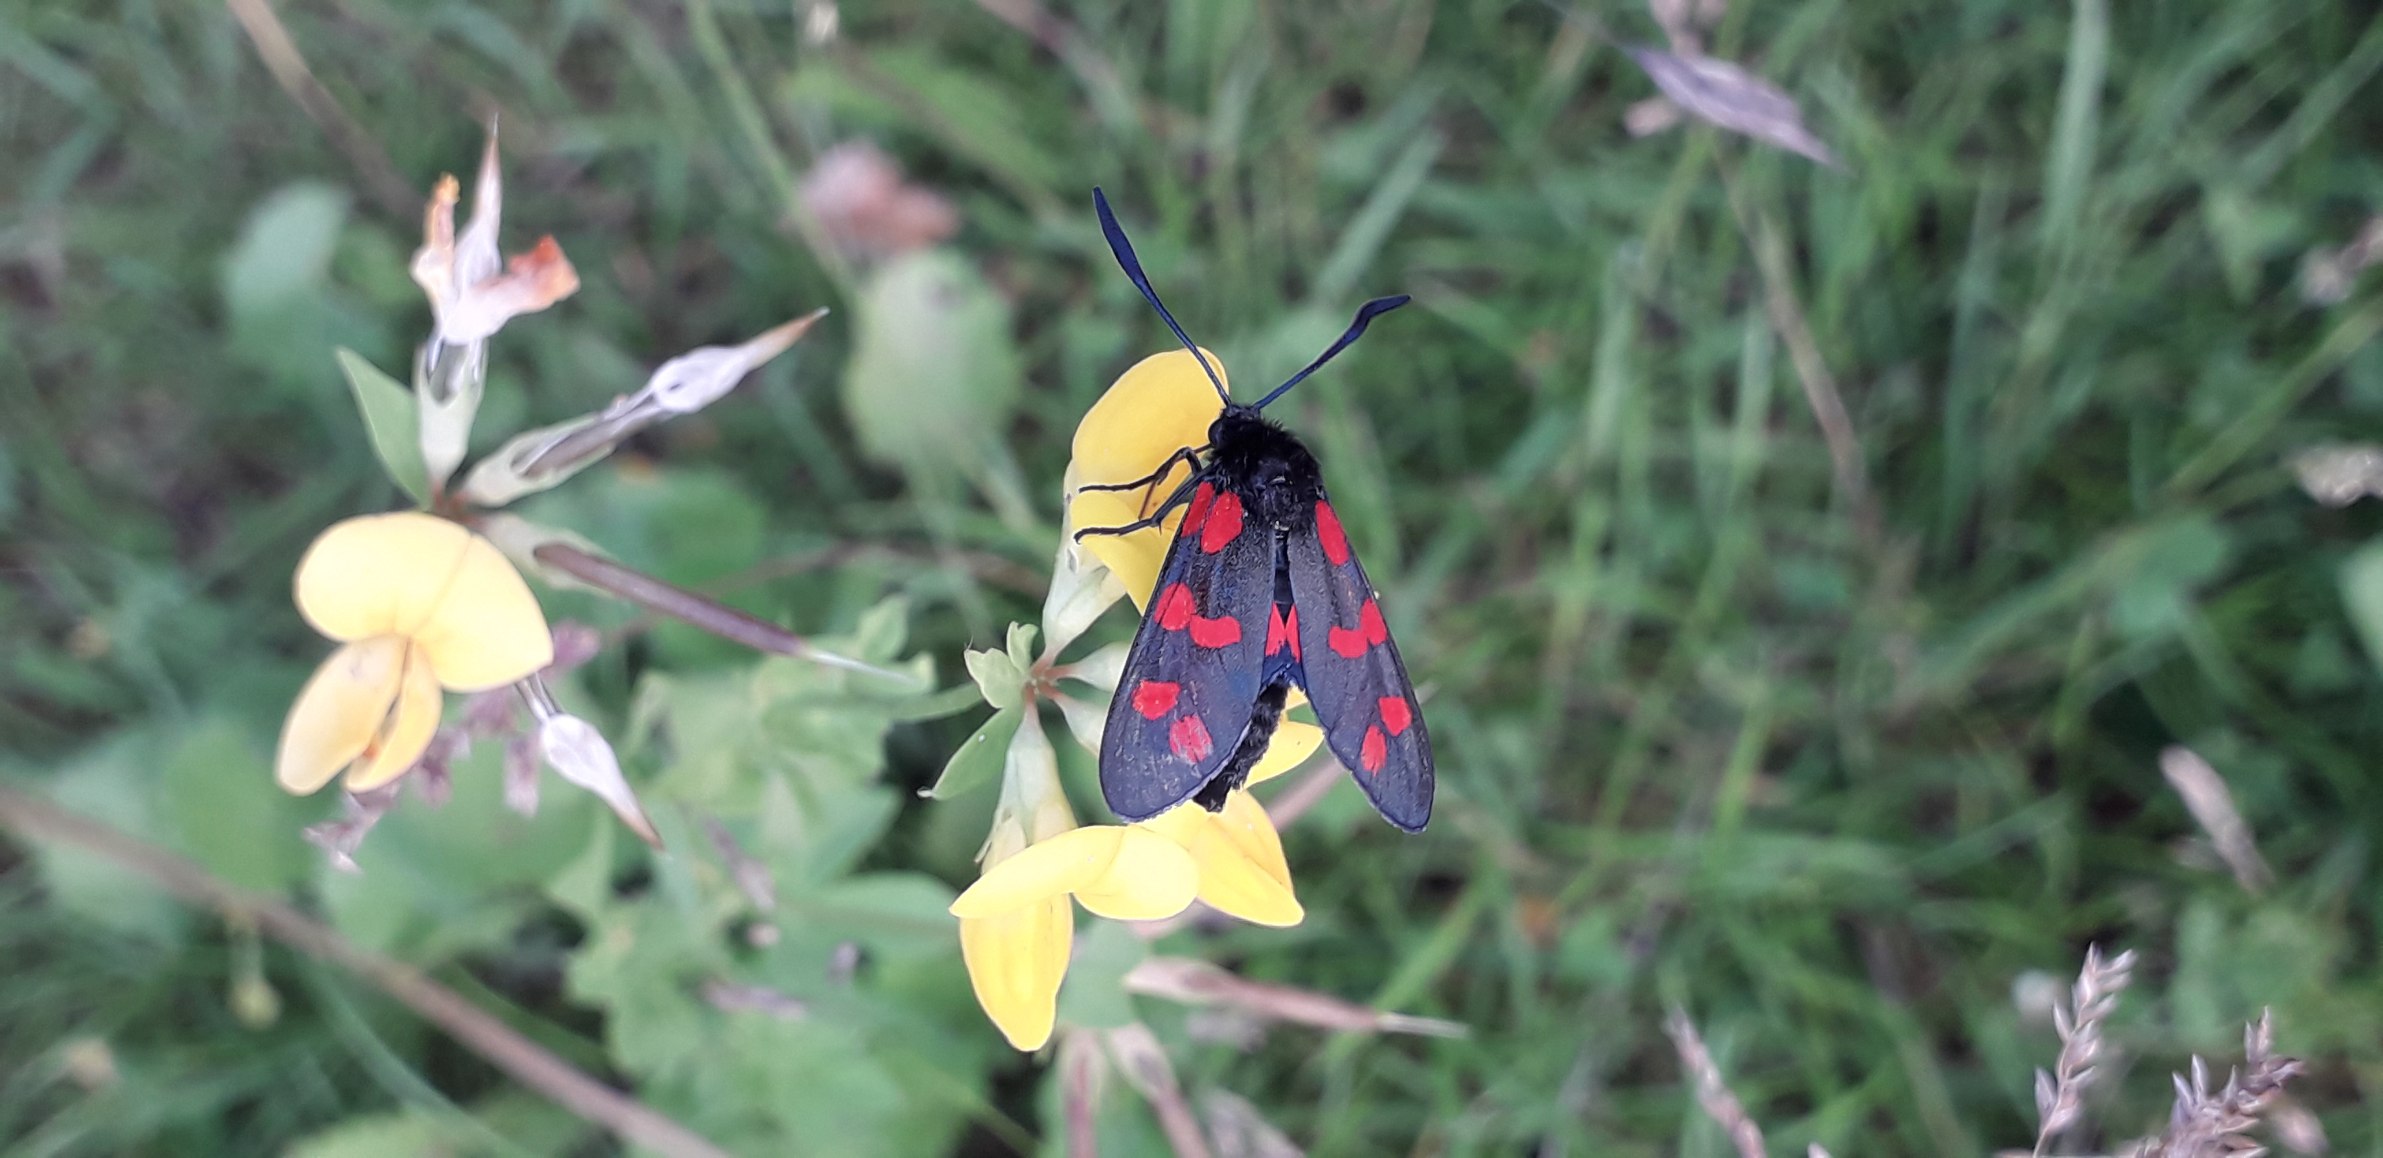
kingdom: Animalia
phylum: Arthropoda
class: Insecta
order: Lepidoptera
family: Zygaenidae
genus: Zygaena
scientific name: Zygaena filipendulae
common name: Seksplettet køllesværmer
